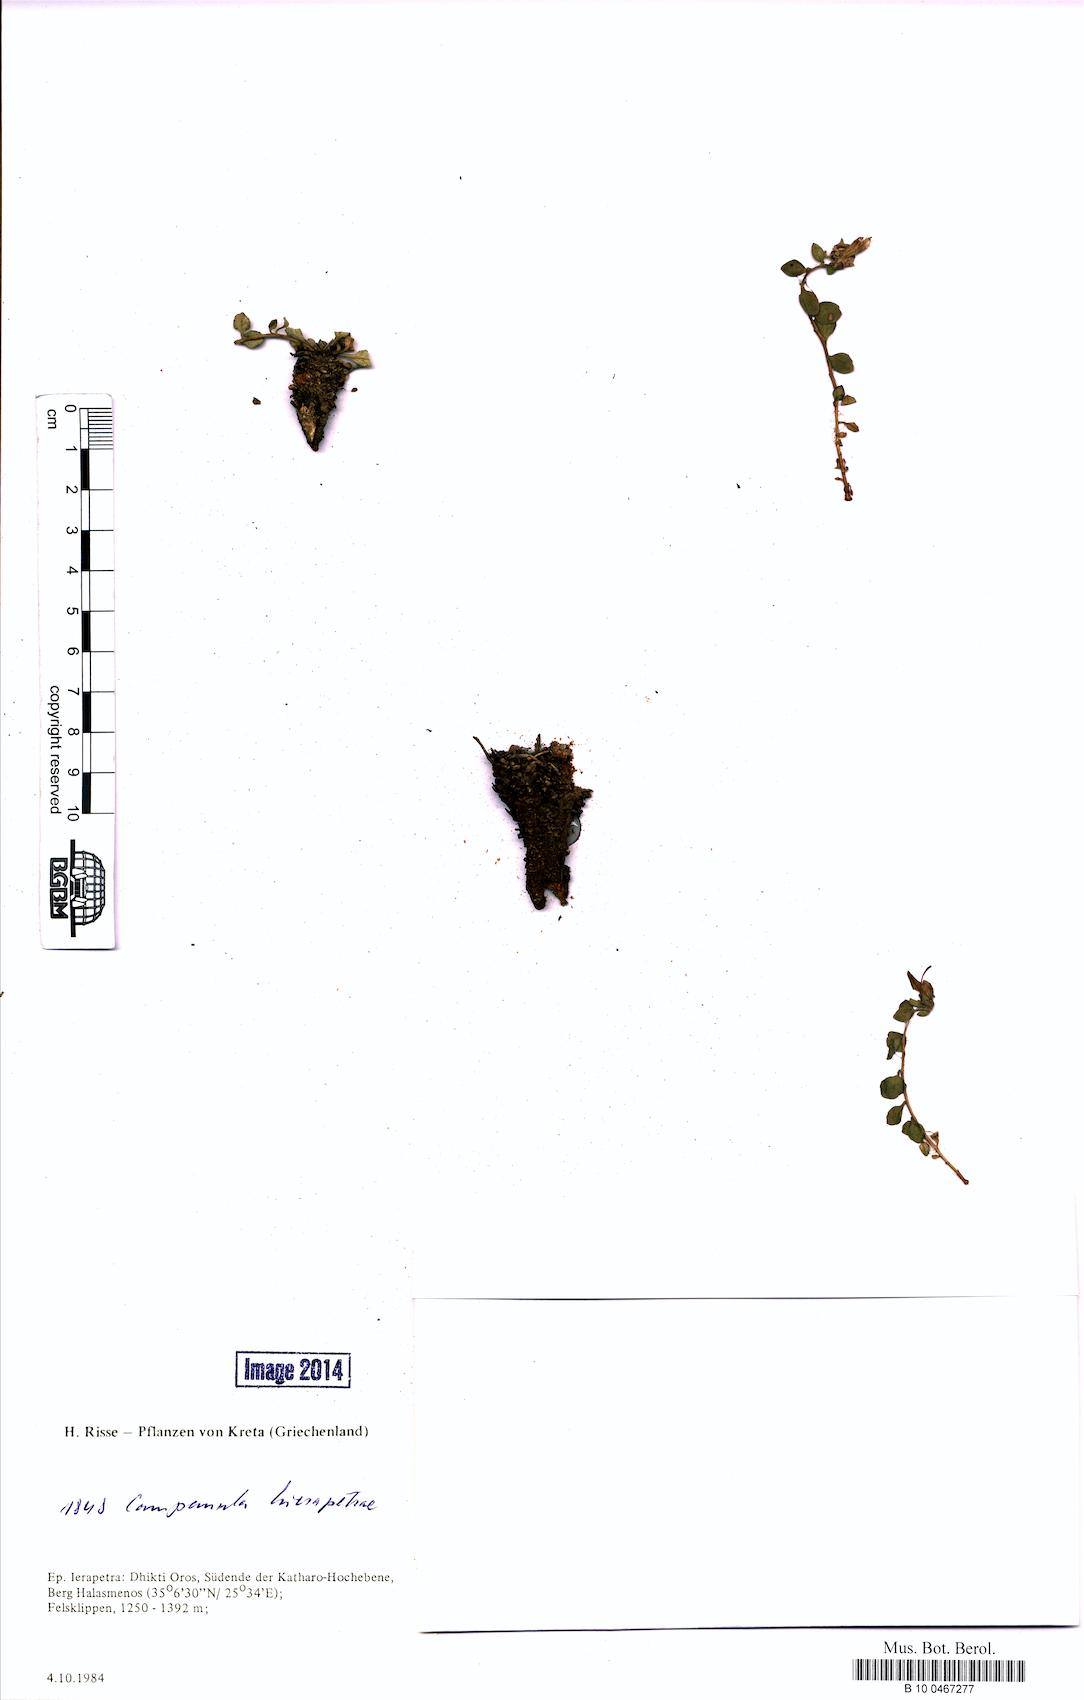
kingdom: Plantae
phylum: Tracheophyta
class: Magnoliopsida
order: Asterales
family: Campanulaceae
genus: Campanula
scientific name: Campanula hierapetrae
